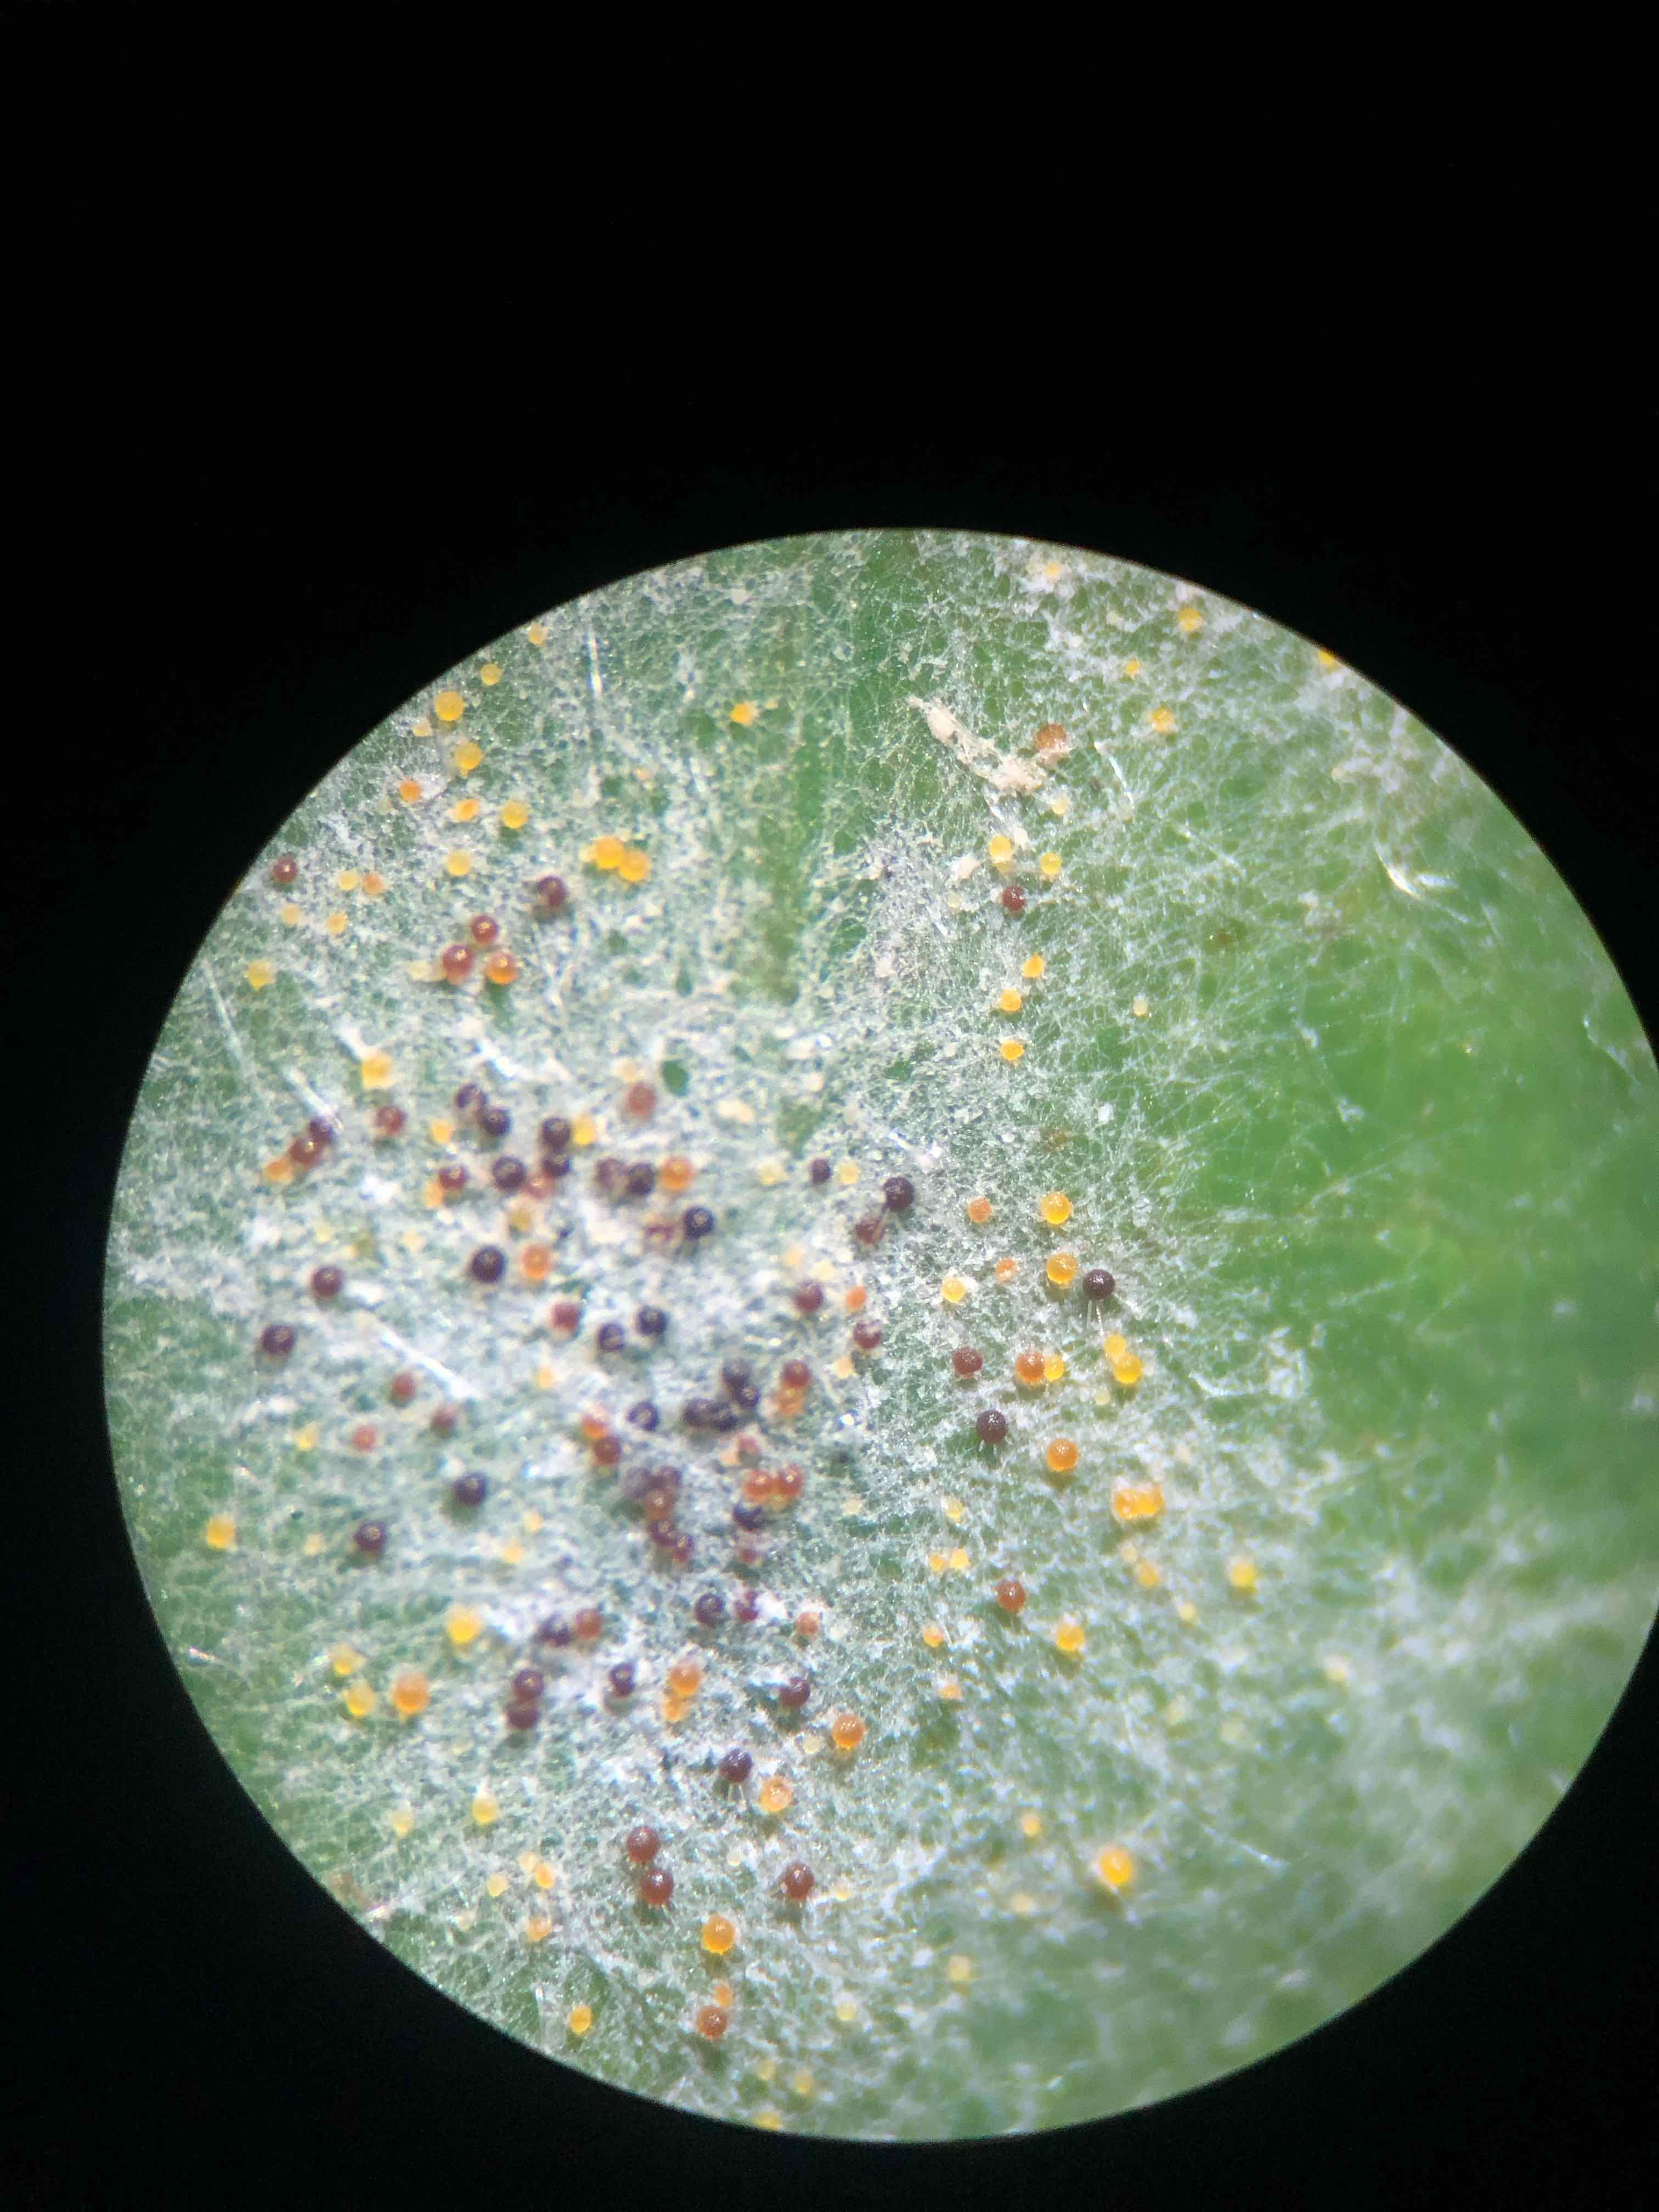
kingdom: Fungi
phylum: Ascomycota
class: Leotiomycetes
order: Helotiales
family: Erysiphaceae
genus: Erysiphe
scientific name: Erysiphe robiniae
